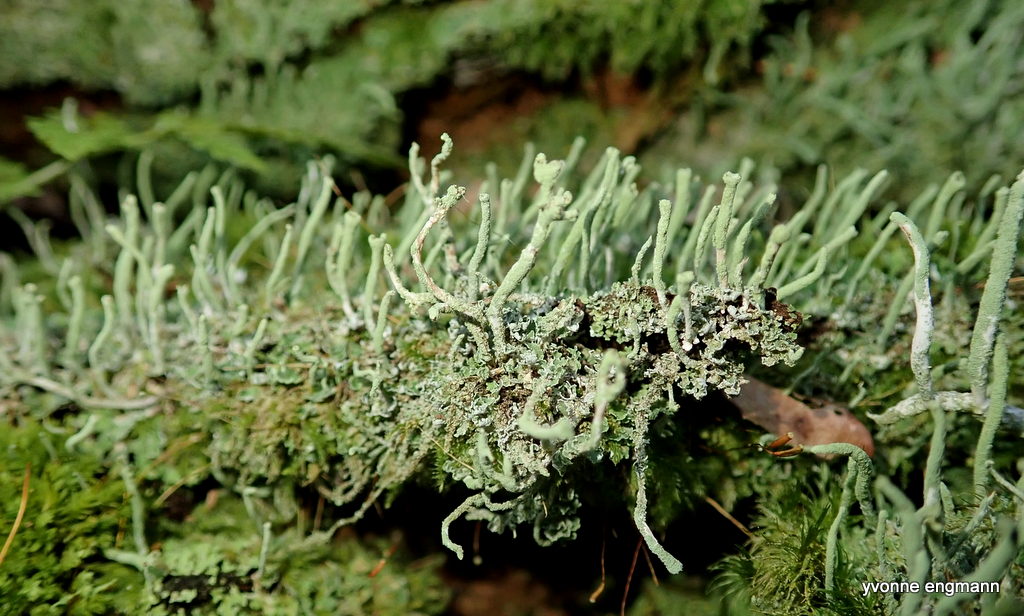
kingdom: Fungi
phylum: Ascomycota
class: Lecanoromycetes
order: Lecanorales
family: Cladoniaceae
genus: Cladonia
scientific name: Cladonia ochrochlora
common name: stød-bægerlav
